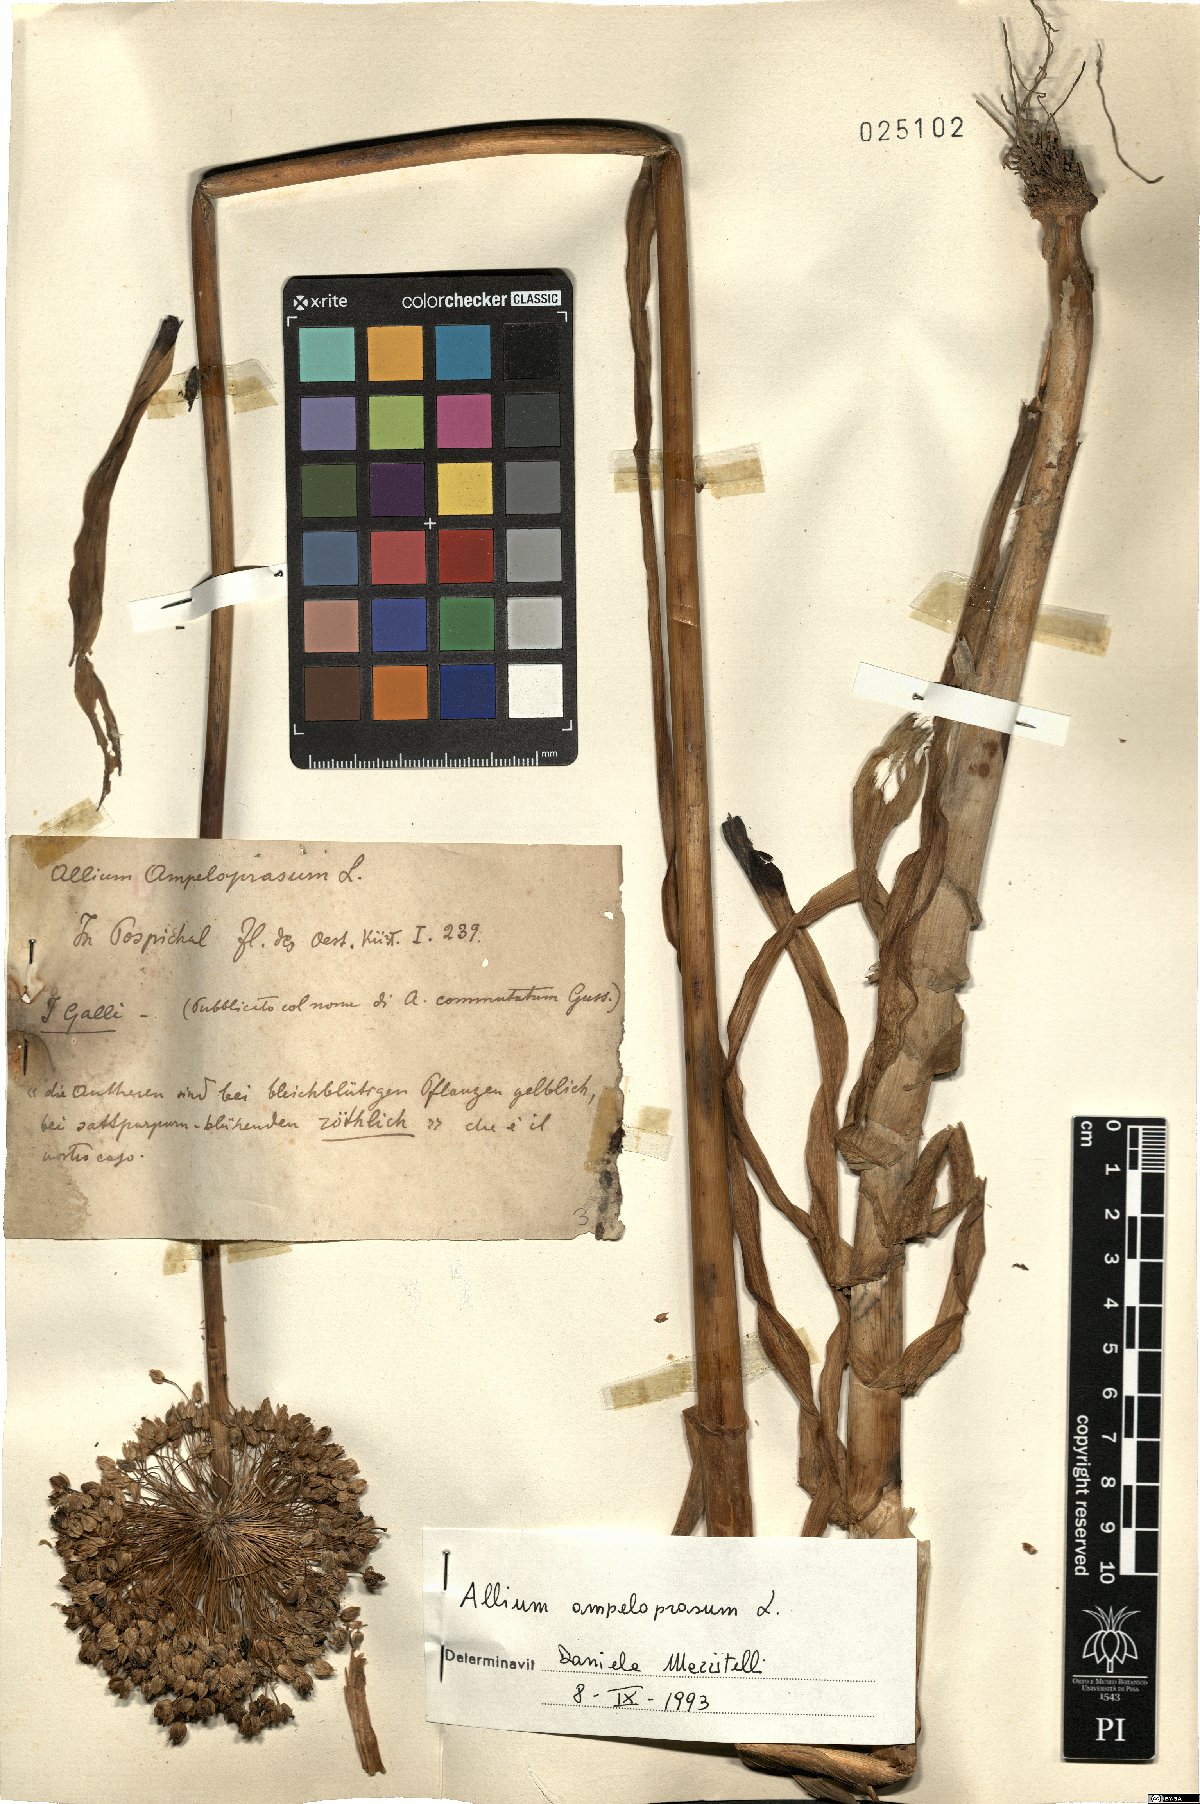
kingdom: Plantae
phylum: Tracheophyta
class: Liliopsida
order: Asparagales
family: Amaryllidaceae
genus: Allium
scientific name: Allium ampeloprasum
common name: Wild leek
